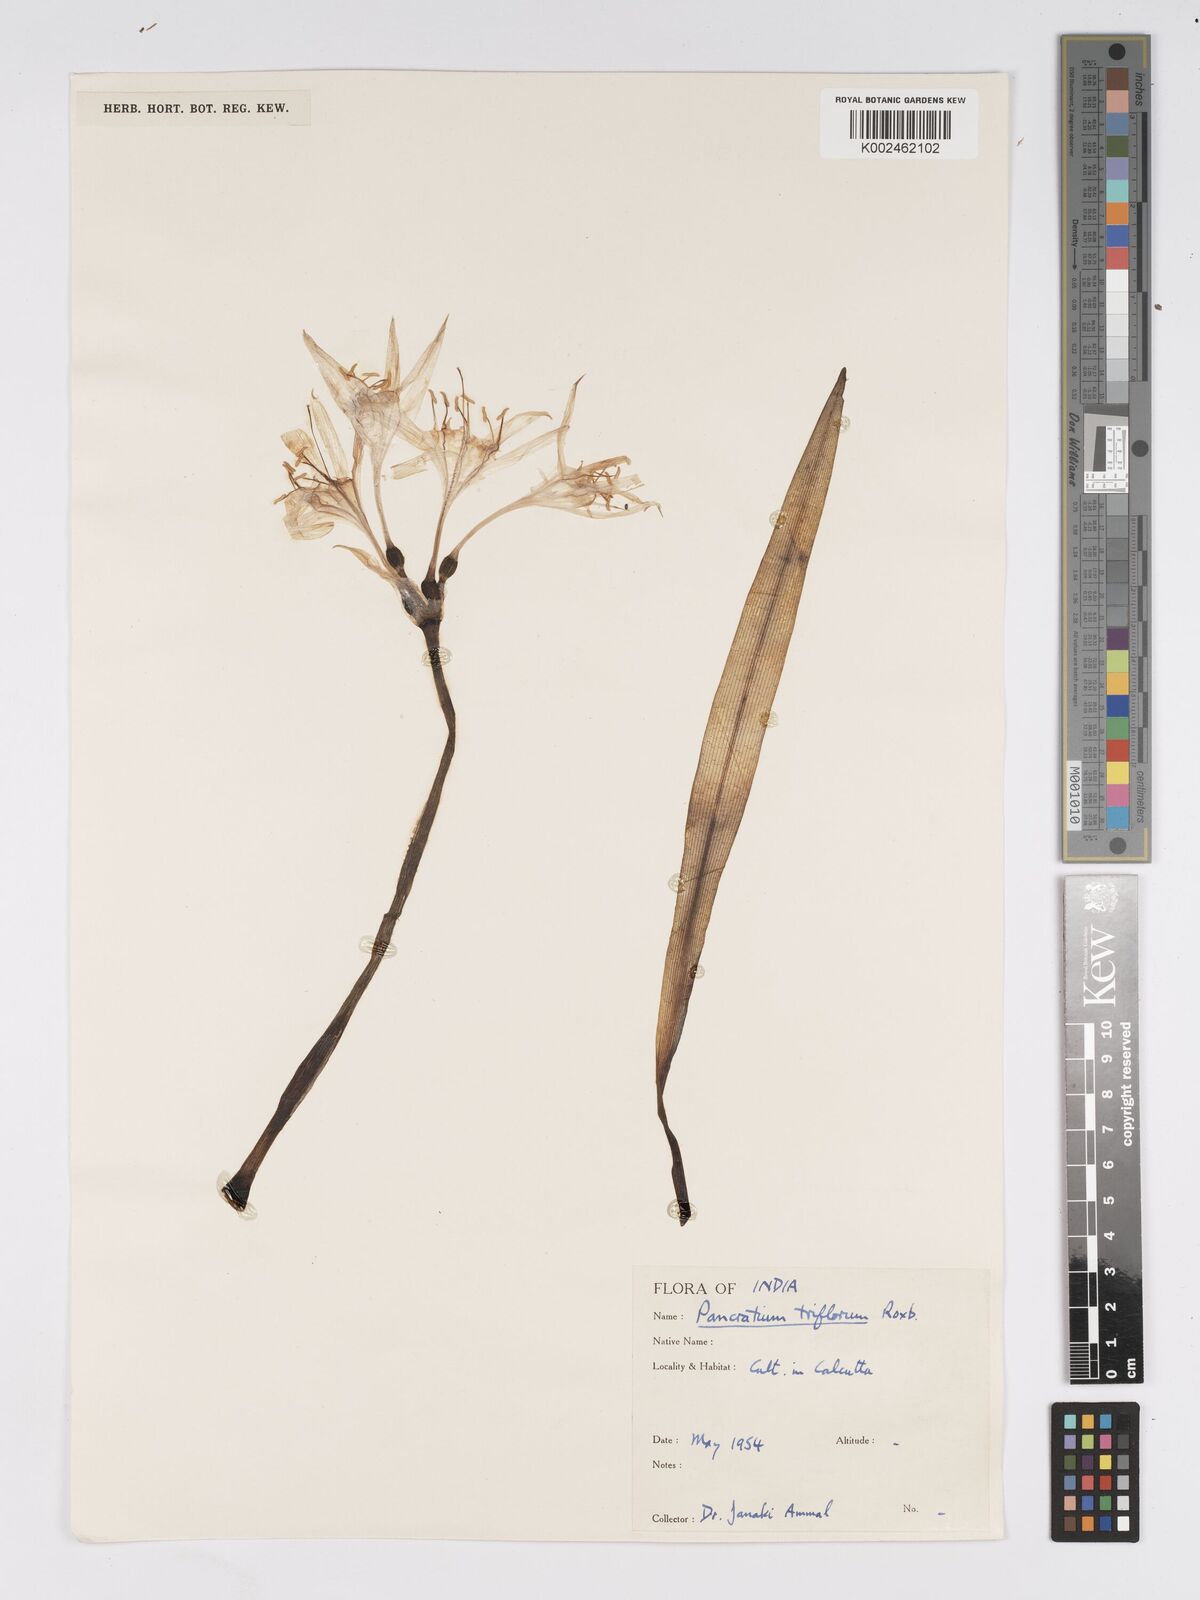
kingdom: Plantae
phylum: Tracheophyta
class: Liliopsida
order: Asparagales
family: Amaryllidaceae
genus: Pancratium
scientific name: Pancratium triflorum
